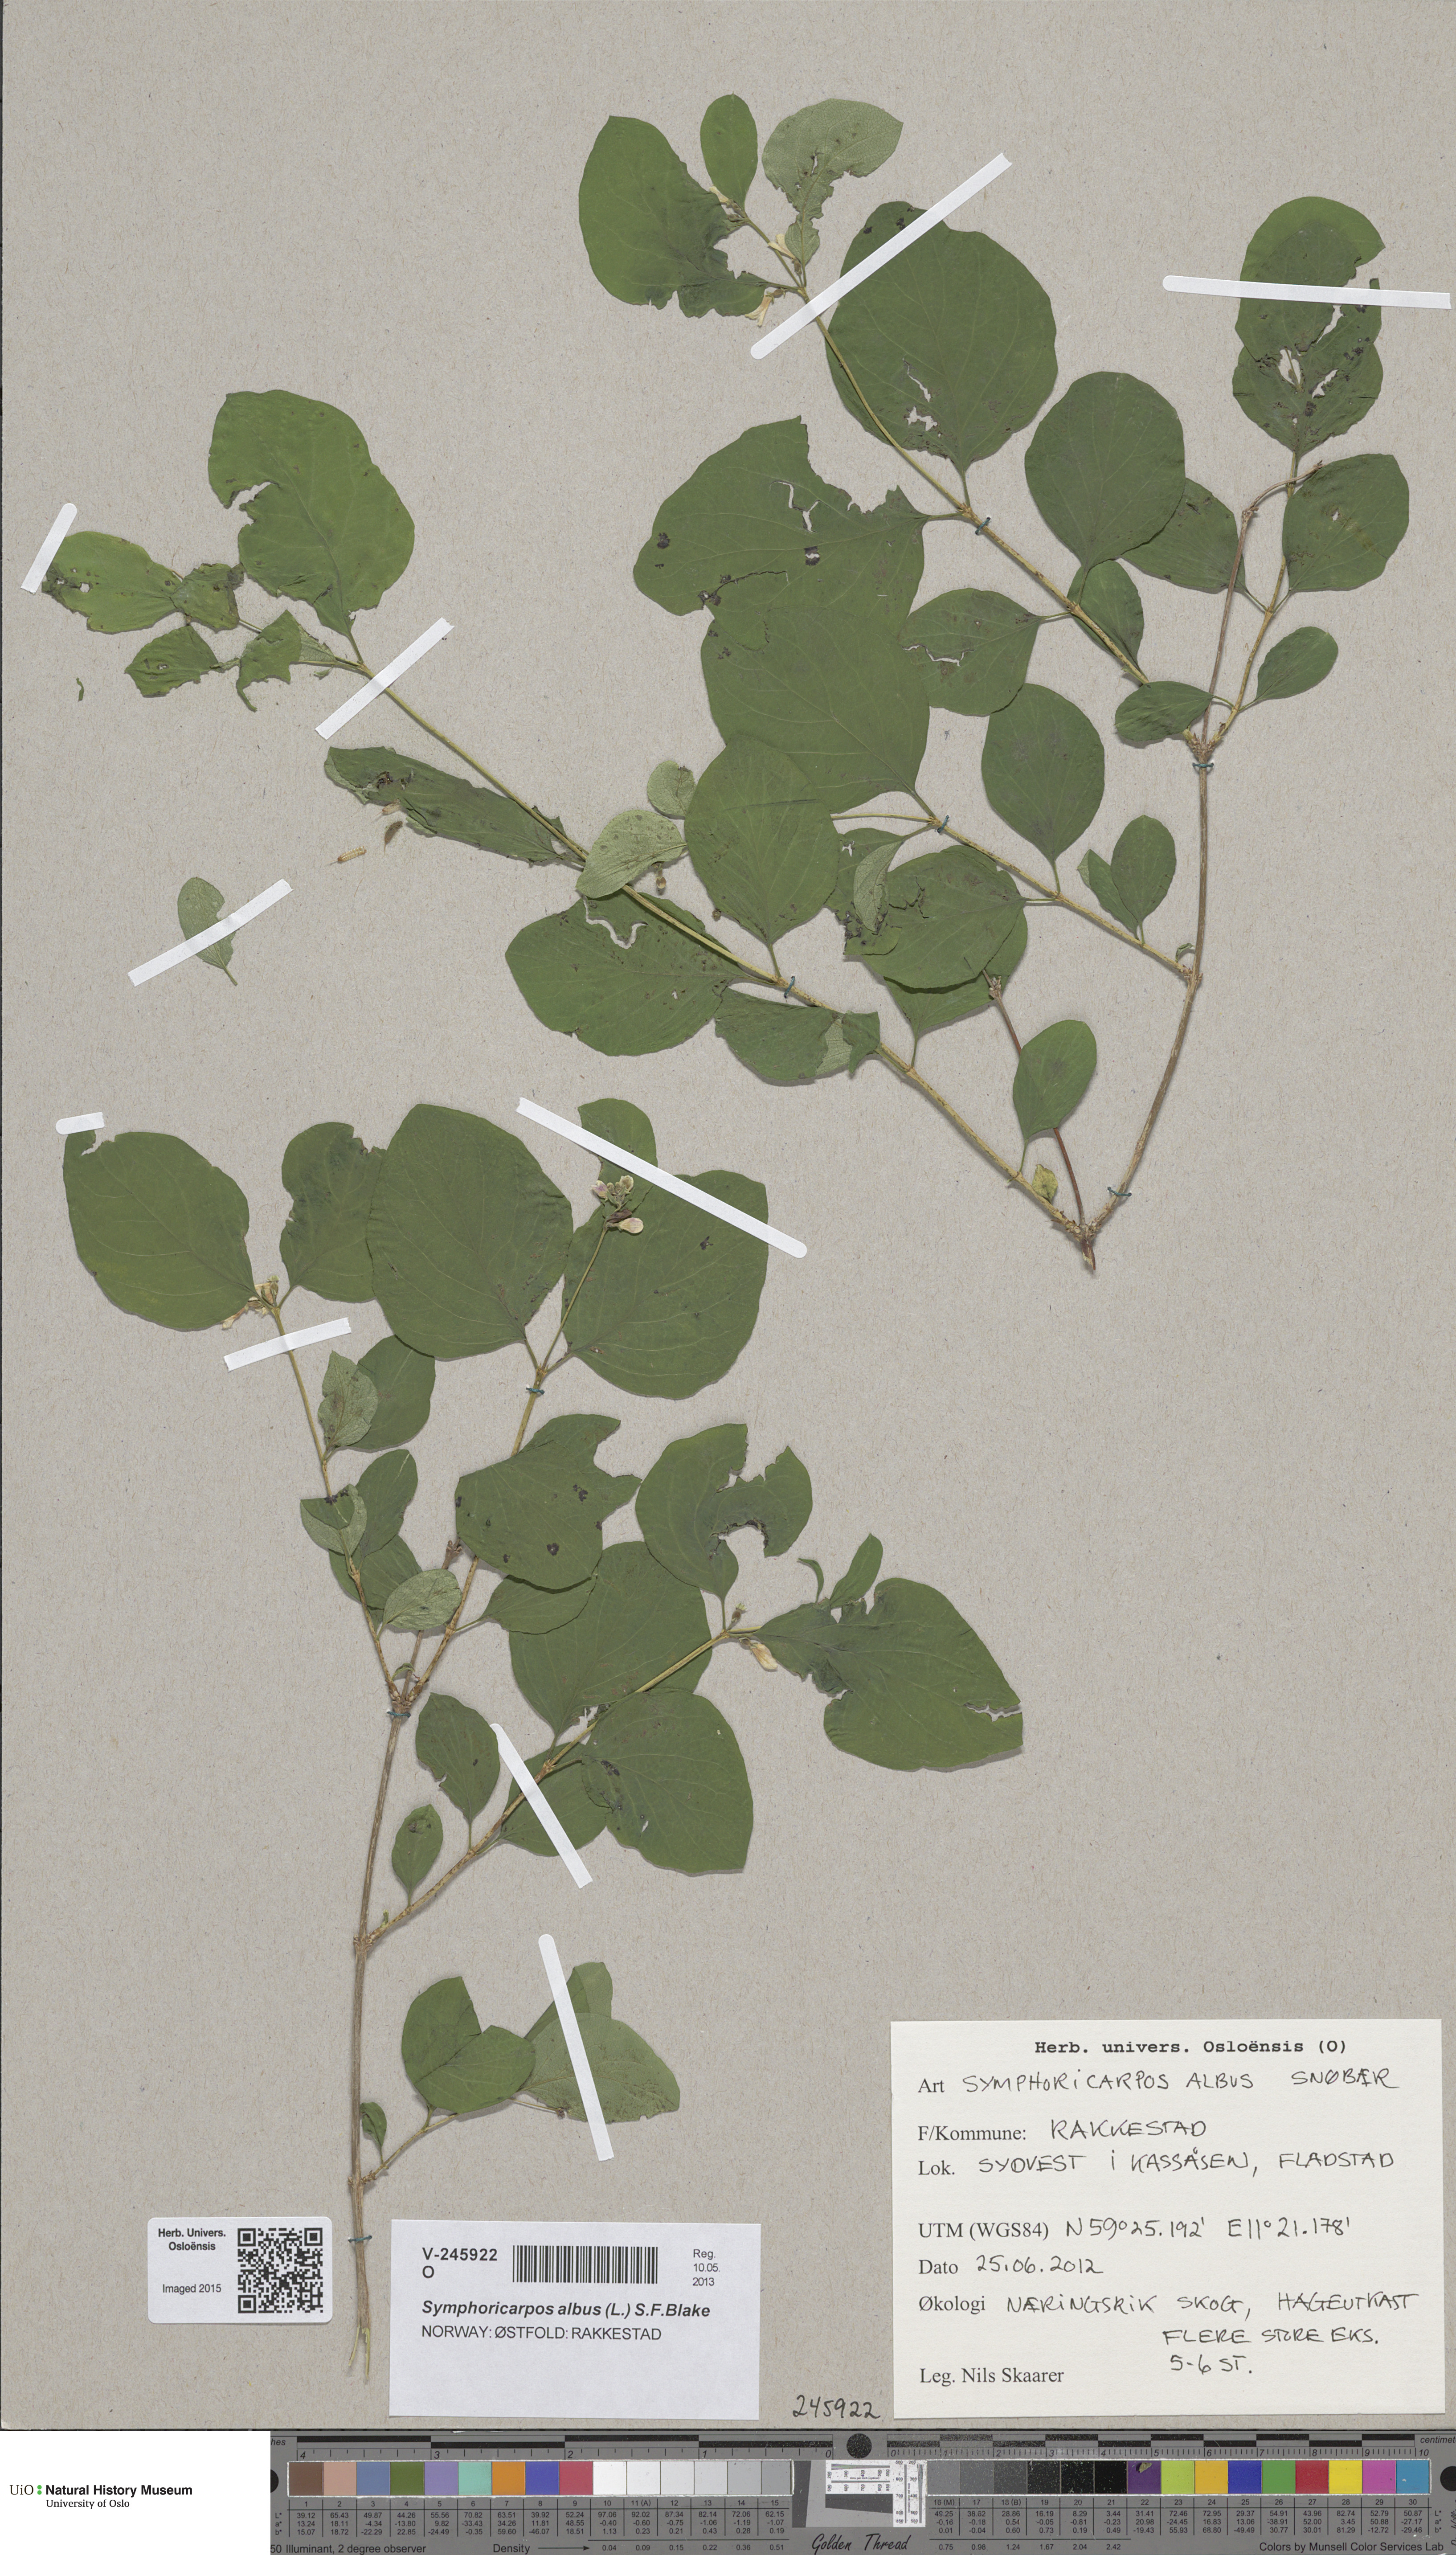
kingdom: Plantae
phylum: Tracheophyta
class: Magnoliopsida
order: Dipsacales
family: Caprifoliaceae
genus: Symphoricarpos
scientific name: Symphoricarpos albus
